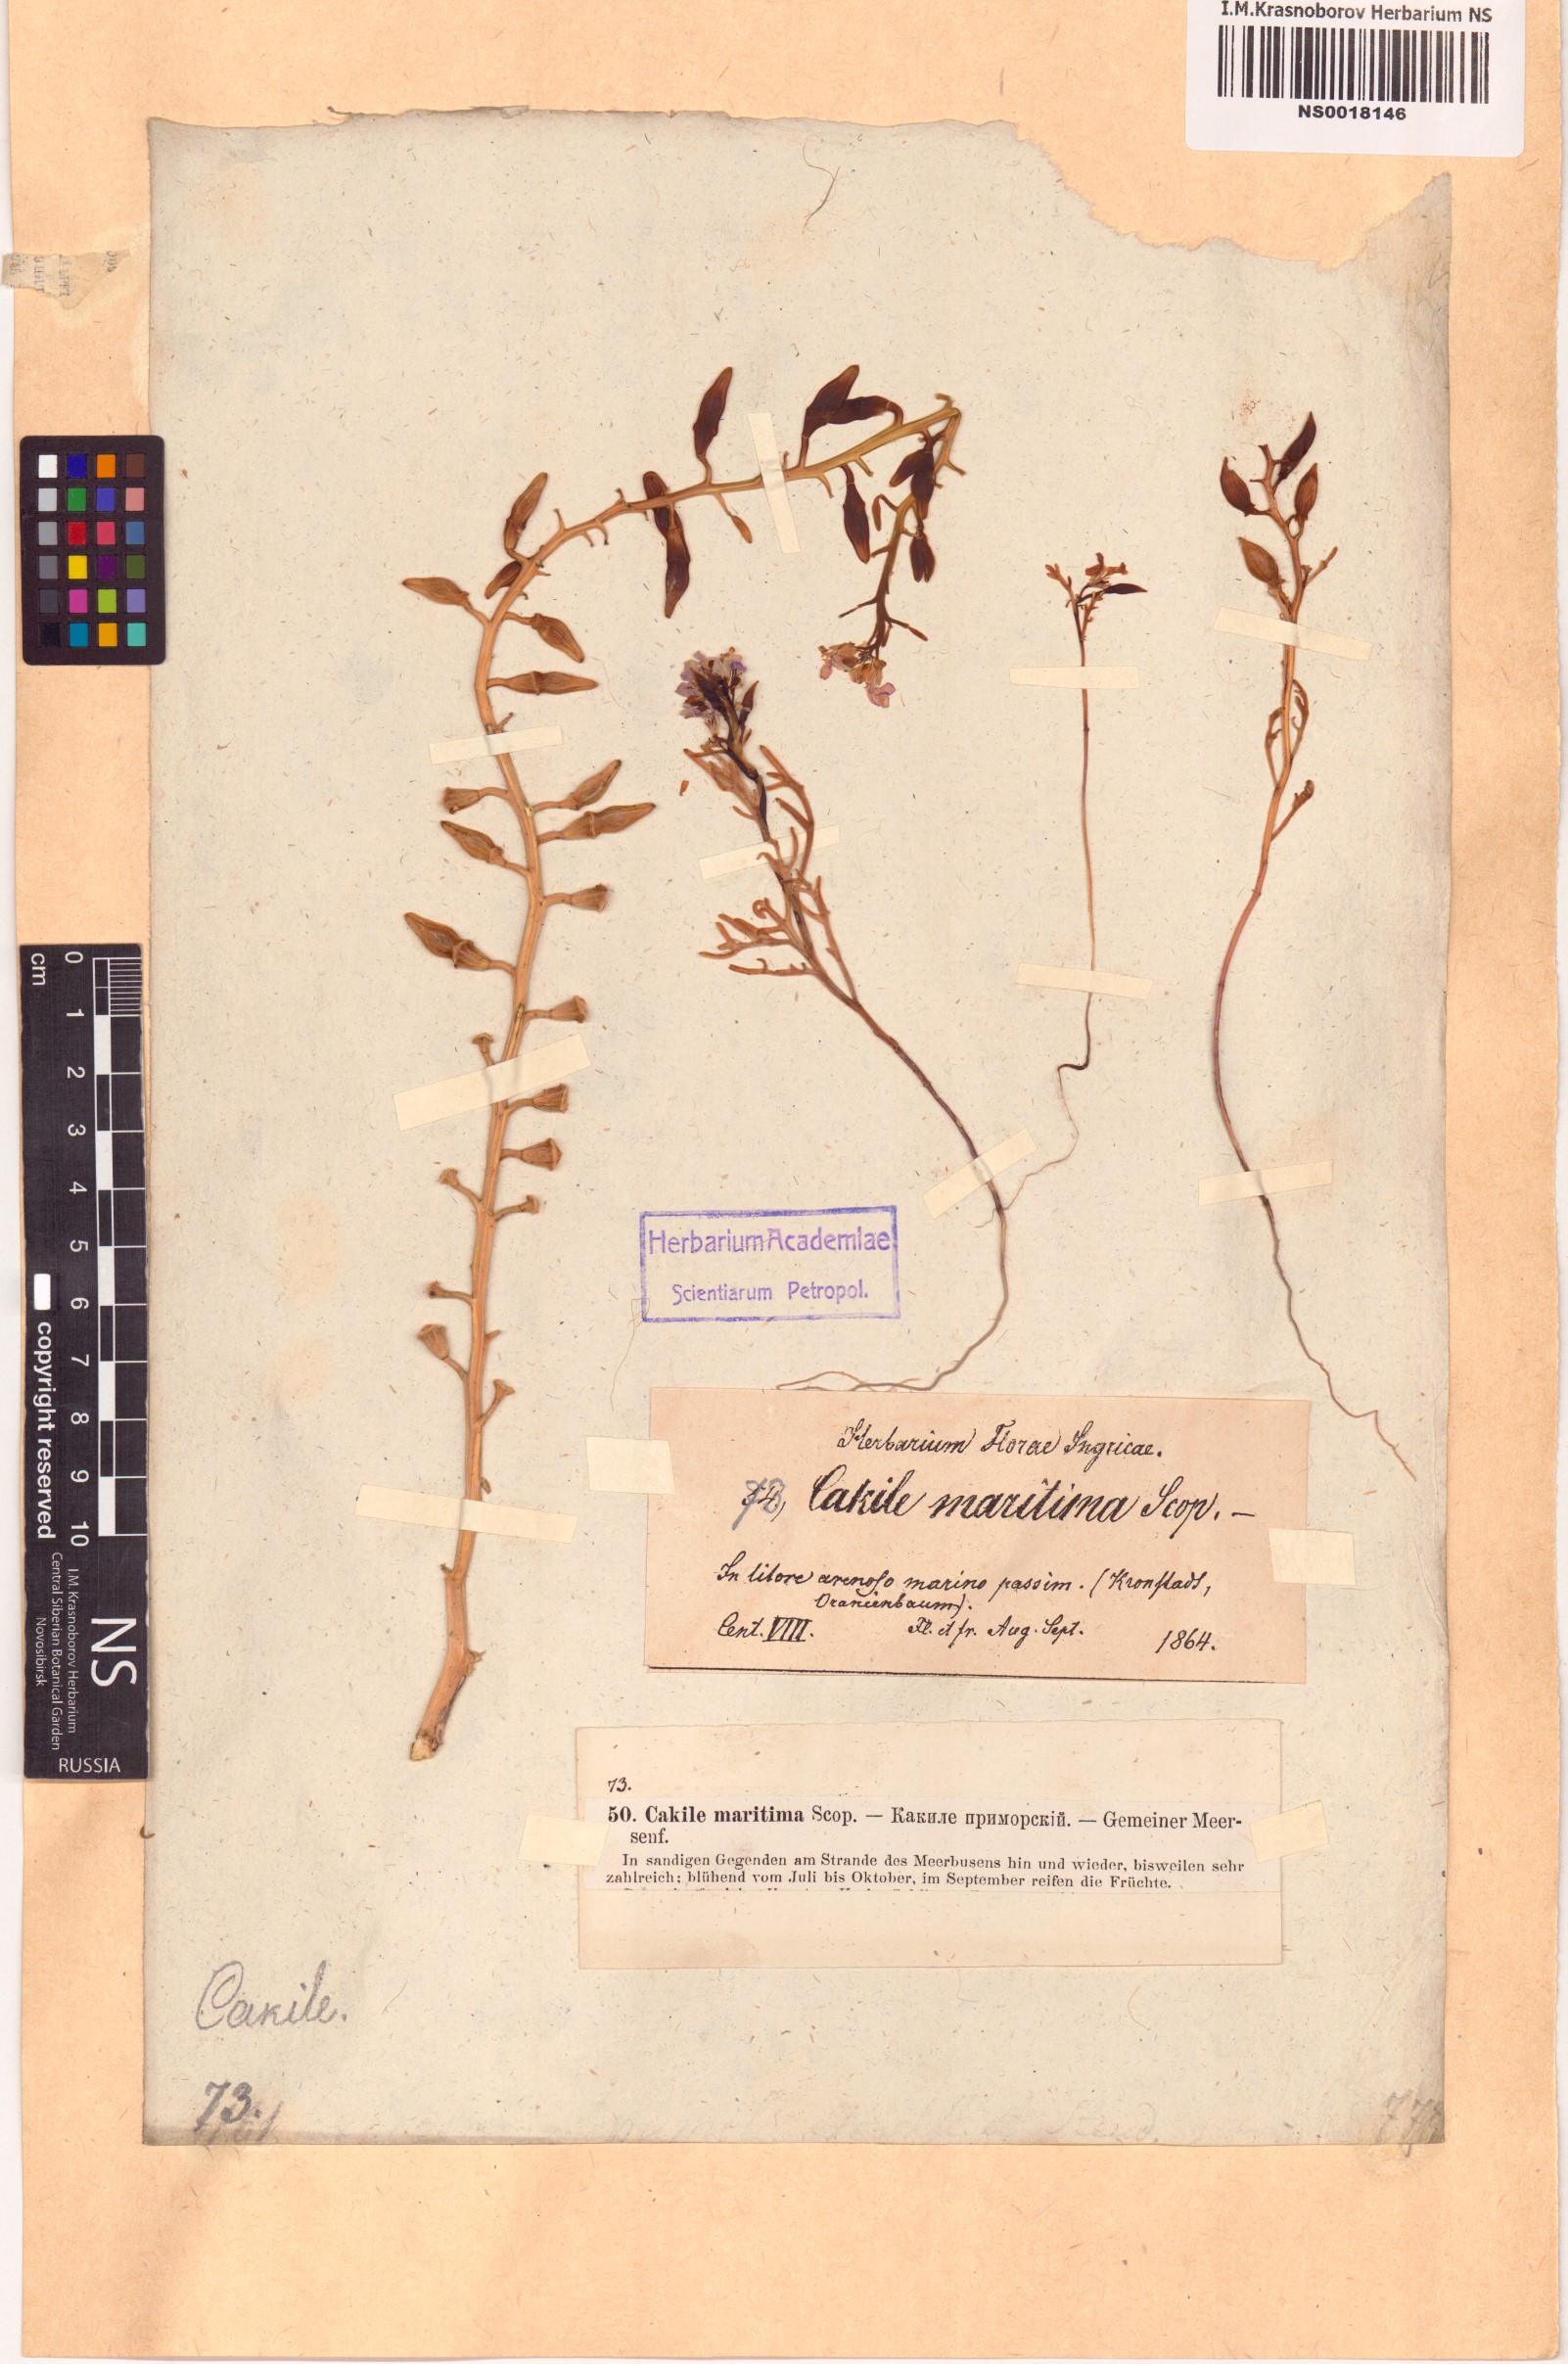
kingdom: Plantae
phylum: Tracheophyta
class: Magnoliopsida
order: Brassicales
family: Brassicaceae
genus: Cakile
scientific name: Cakile maritima
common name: Sea rocket
